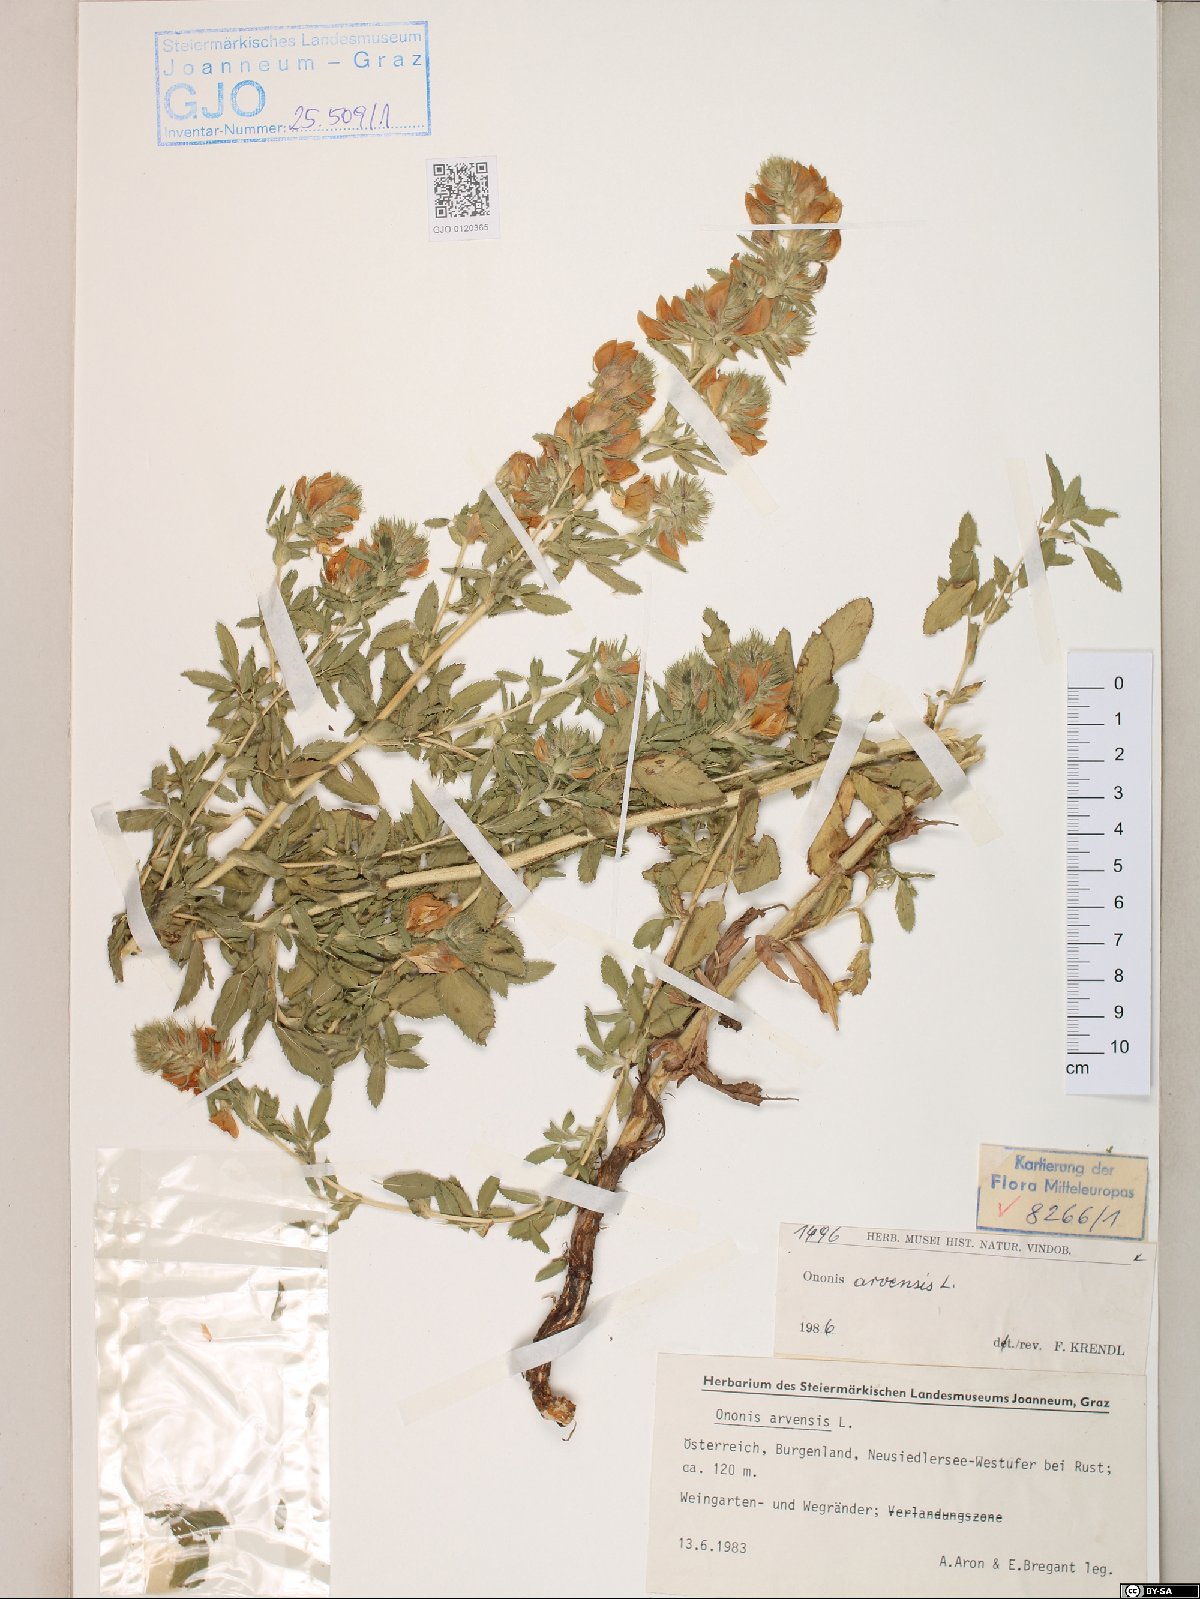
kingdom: Plantae
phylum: Tracheophyta
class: Magnoliopsida
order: Fabales
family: Fabaceae
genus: Ononis
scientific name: Ononis arvensis
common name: Field restharrow
